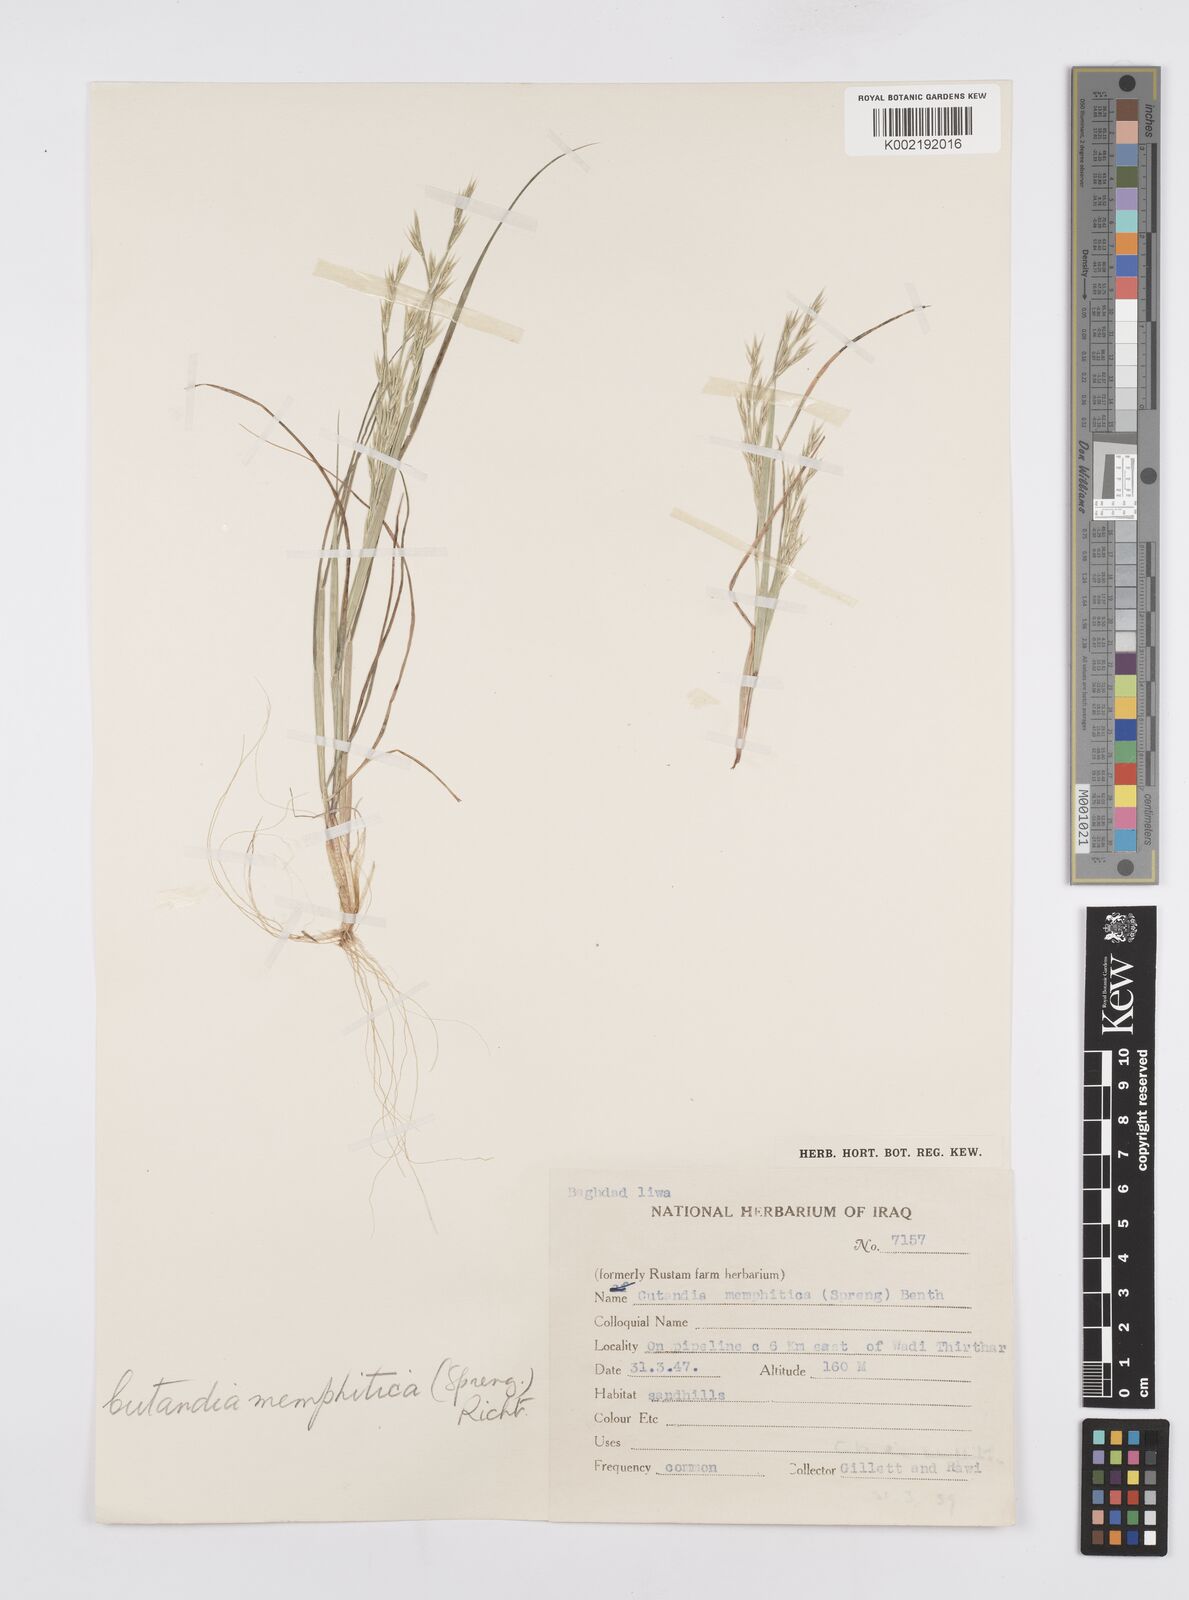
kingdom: Plantae
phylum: Tracheophyta
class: Liliopsida
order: Poales
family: Poaceae
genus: Cutandia
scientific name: Cutandia memphitica
